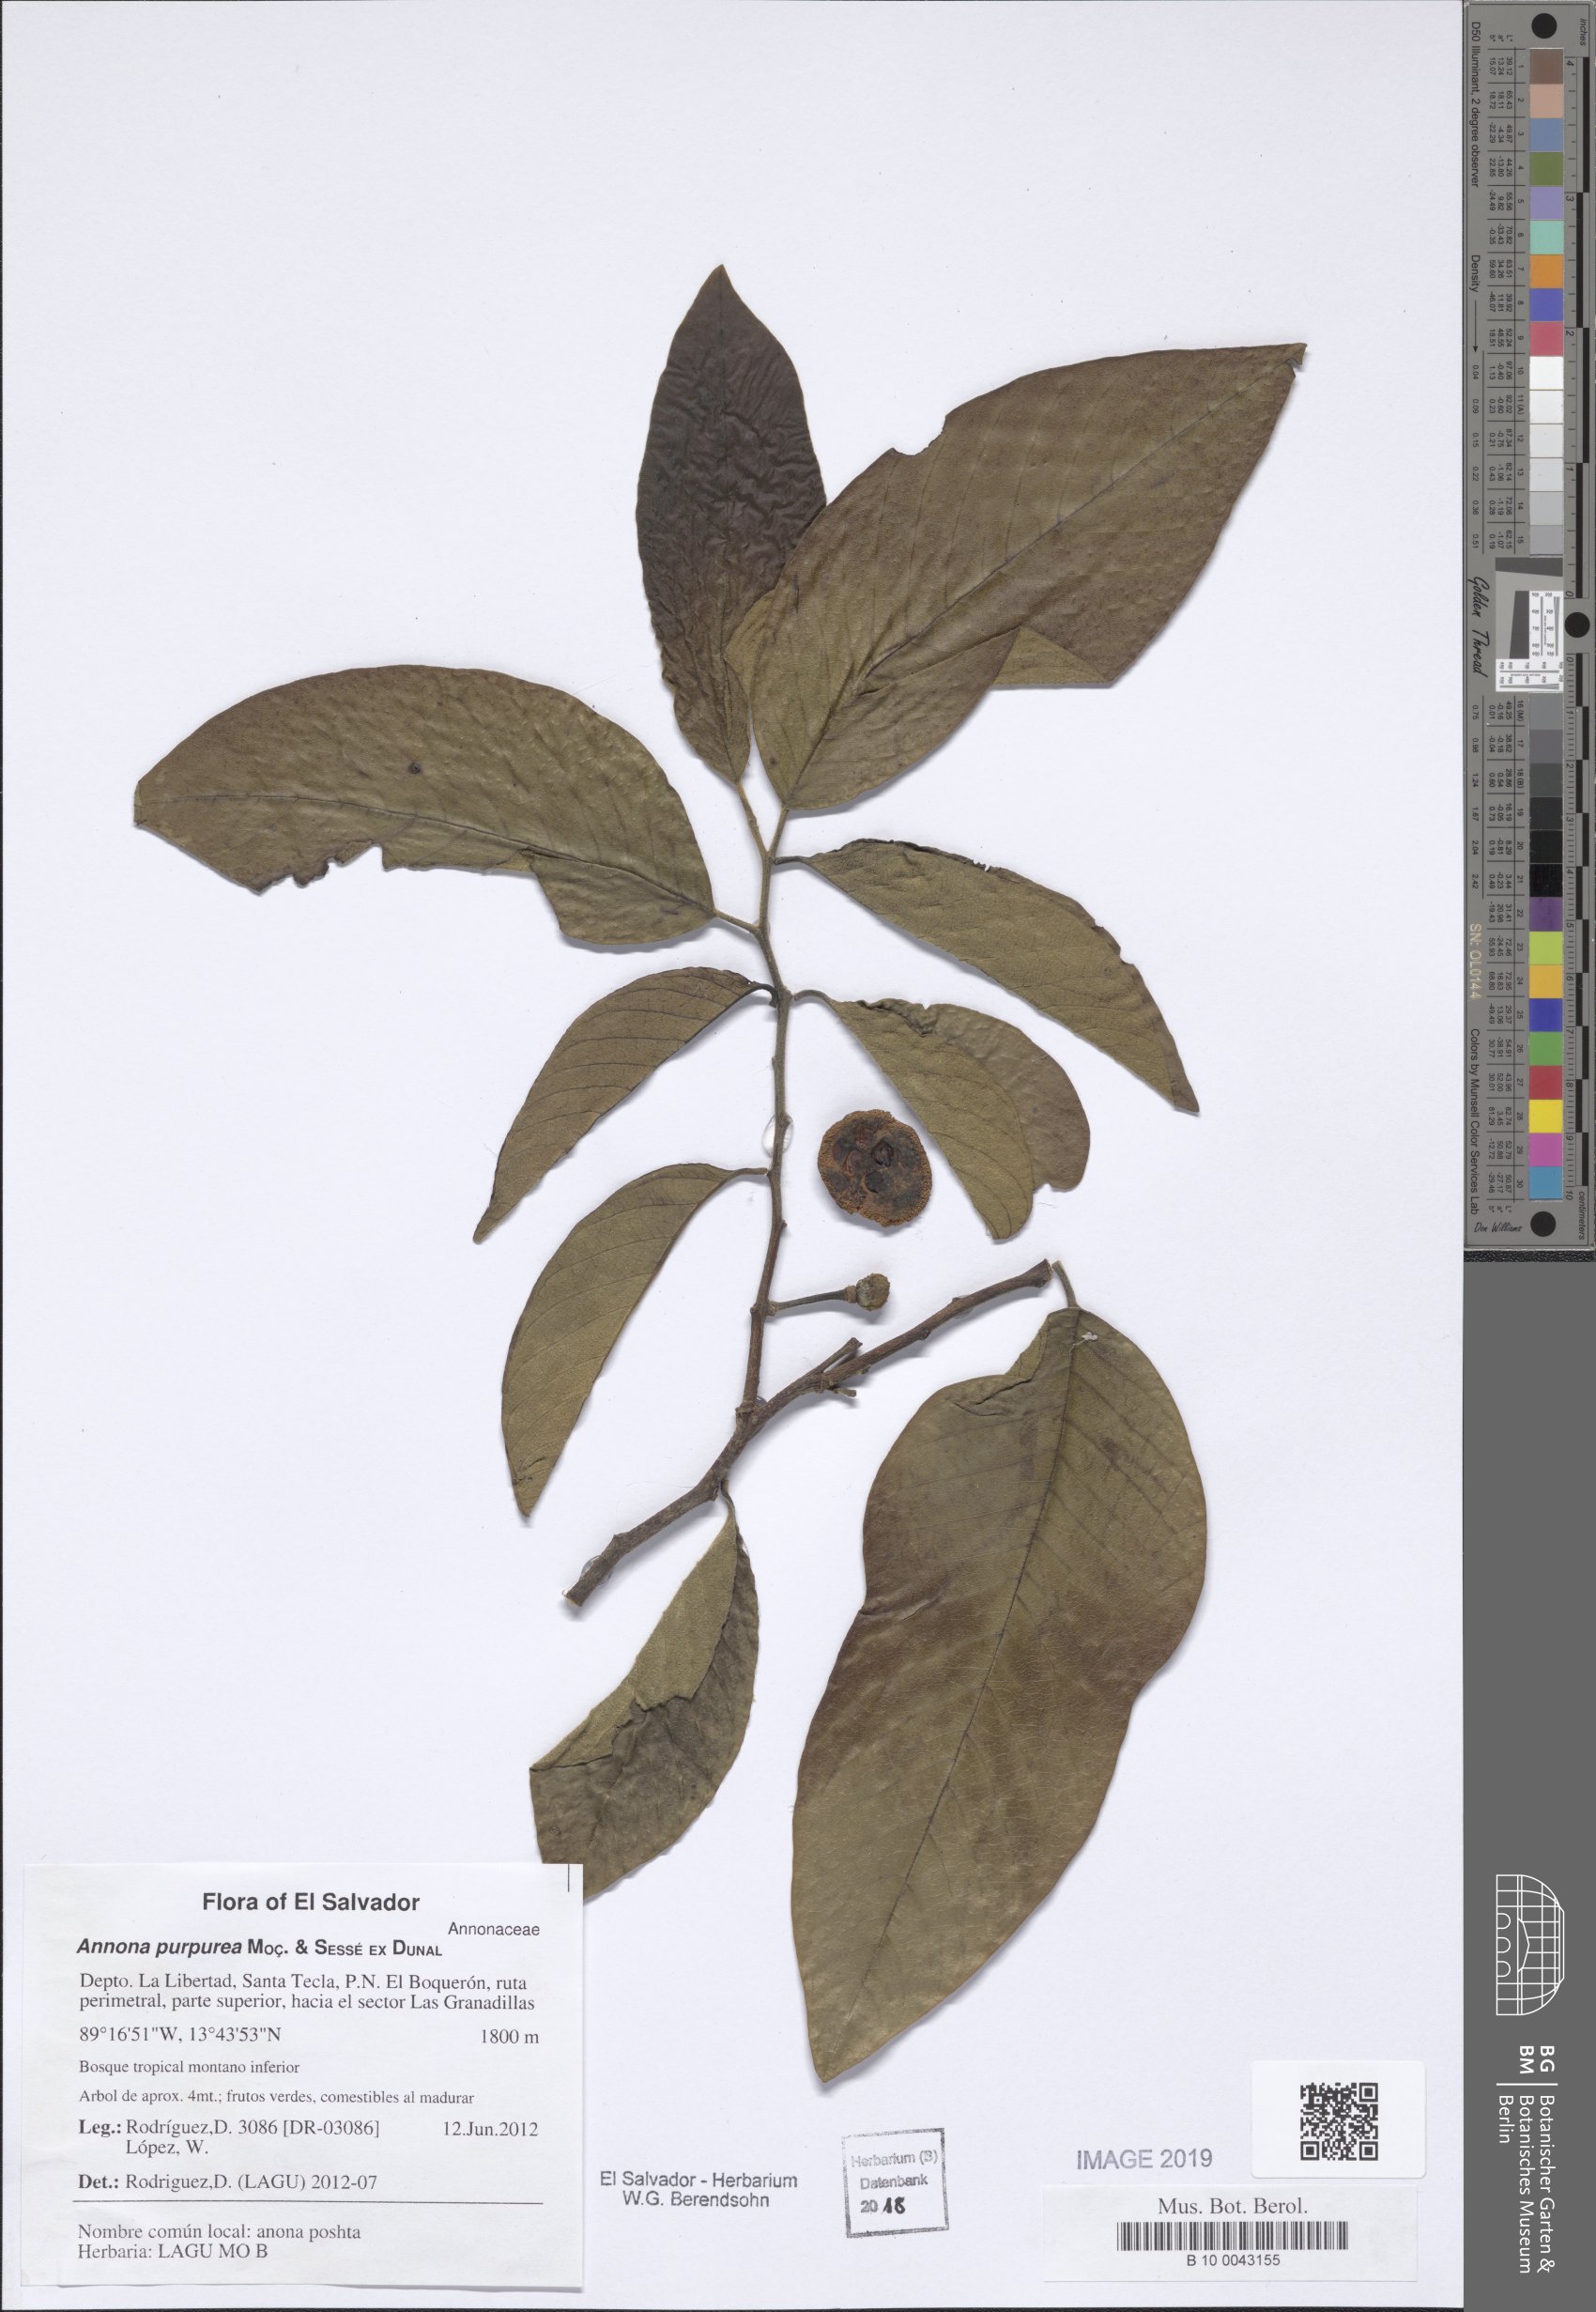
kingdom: Plantae
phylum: Tracheophyta
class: Magnoliopsida
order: Magnoliales
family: Annonaceae
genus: Annona
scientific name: Annona purpurea
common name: Negrohead
